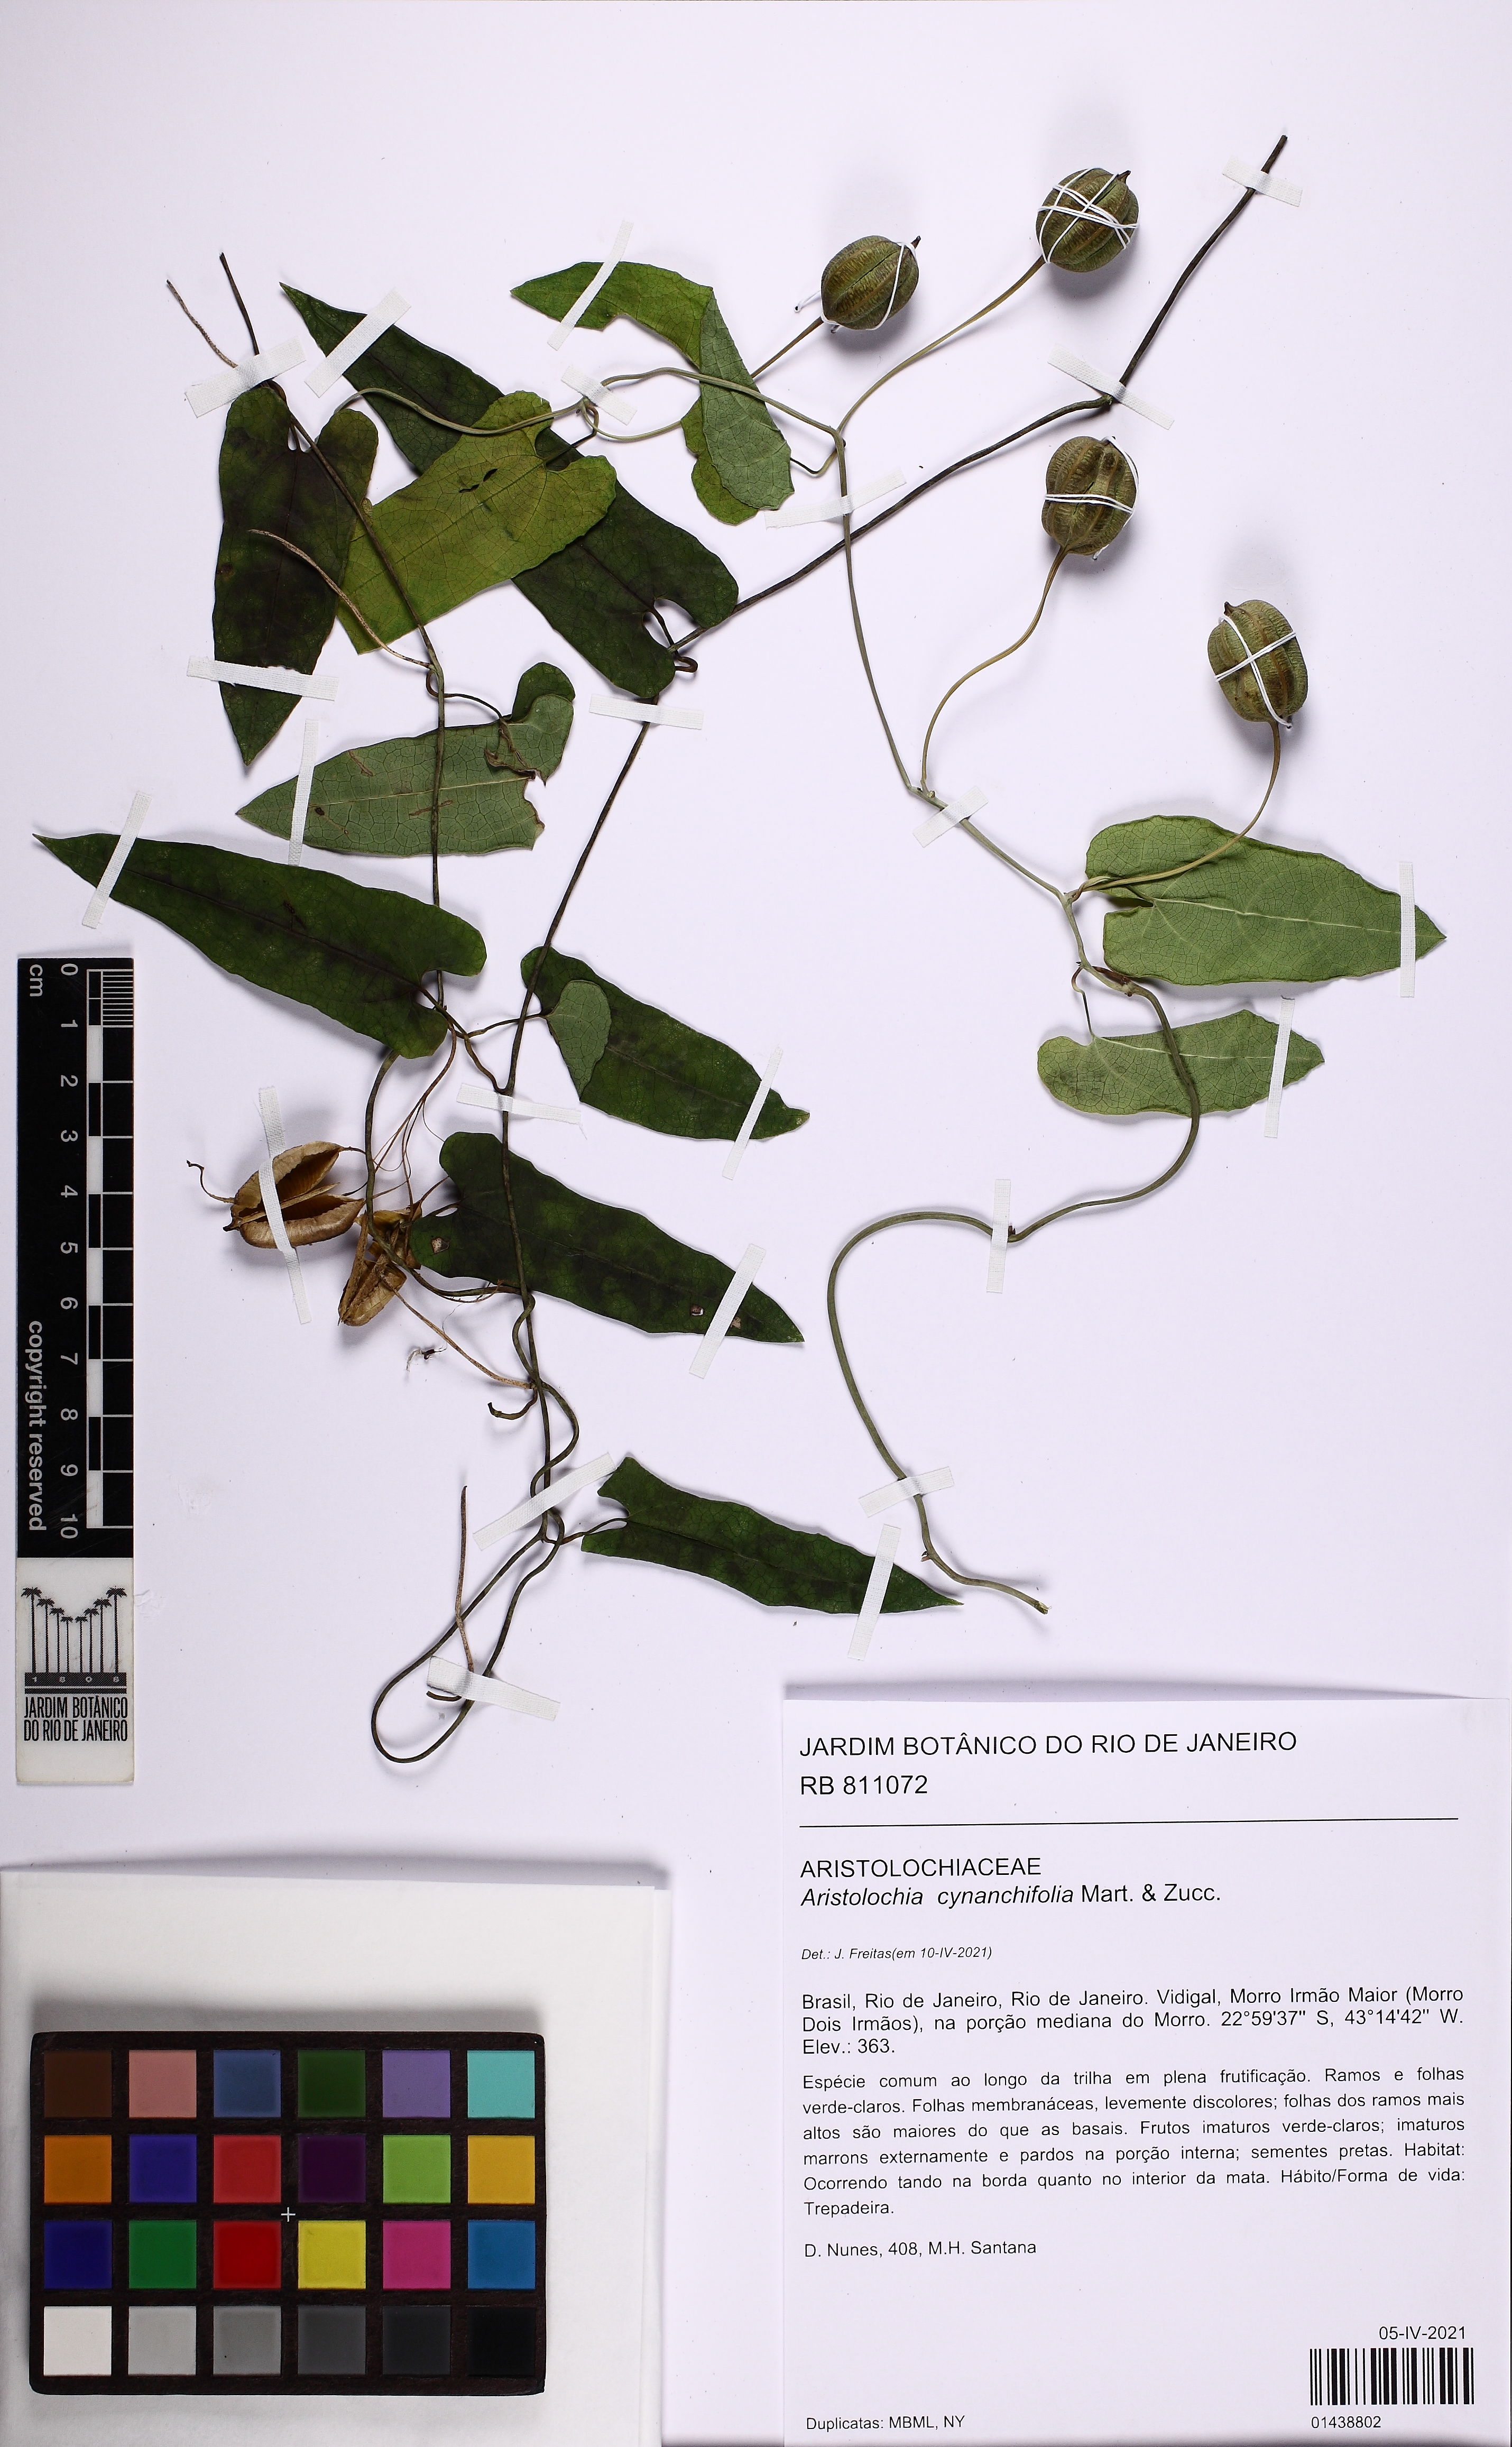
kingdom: Plantae
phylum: Tracheophyta
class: Magnoliopsida
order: Piperales
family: Aristolochiaceae
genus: Aristolochia
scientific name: Aristolochia cynanchifolia
